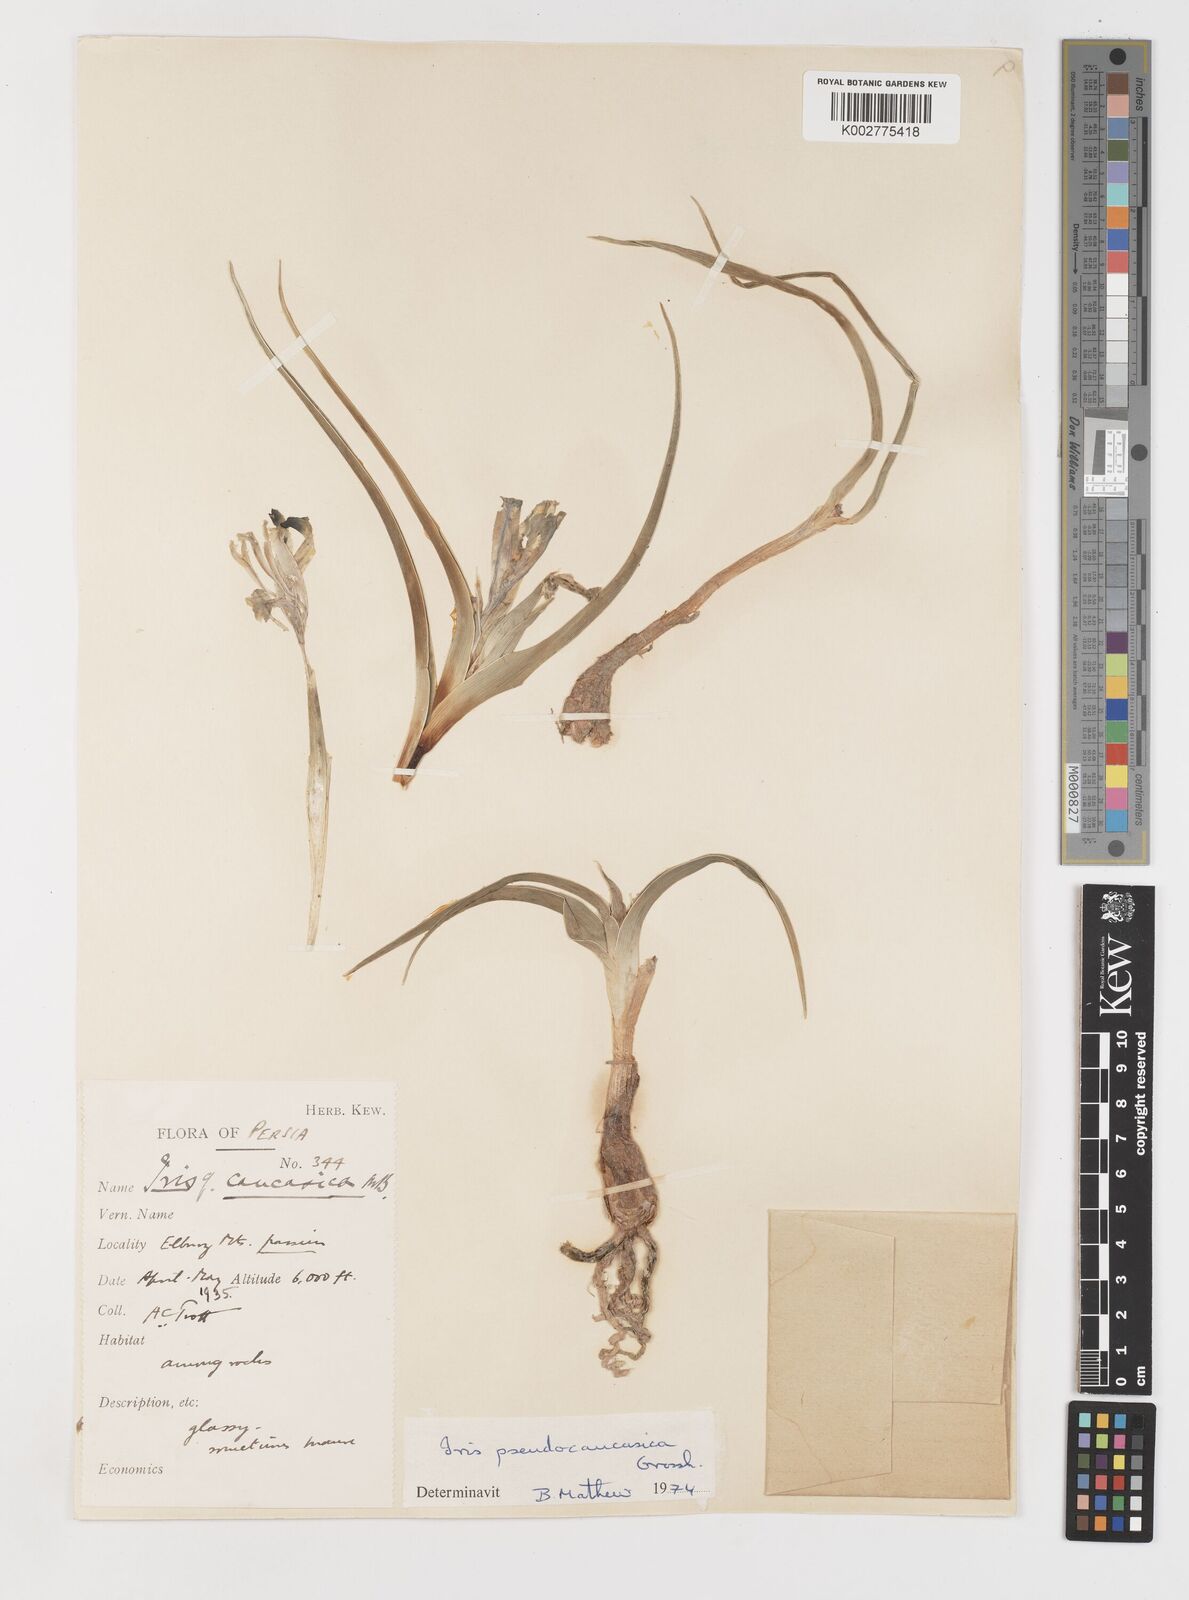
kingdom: Plantae
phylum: Tracheophyta
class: Liliopsida
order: Asparagales
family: Iridaceae
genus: Iris
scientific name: Iris pseudocaucasica
